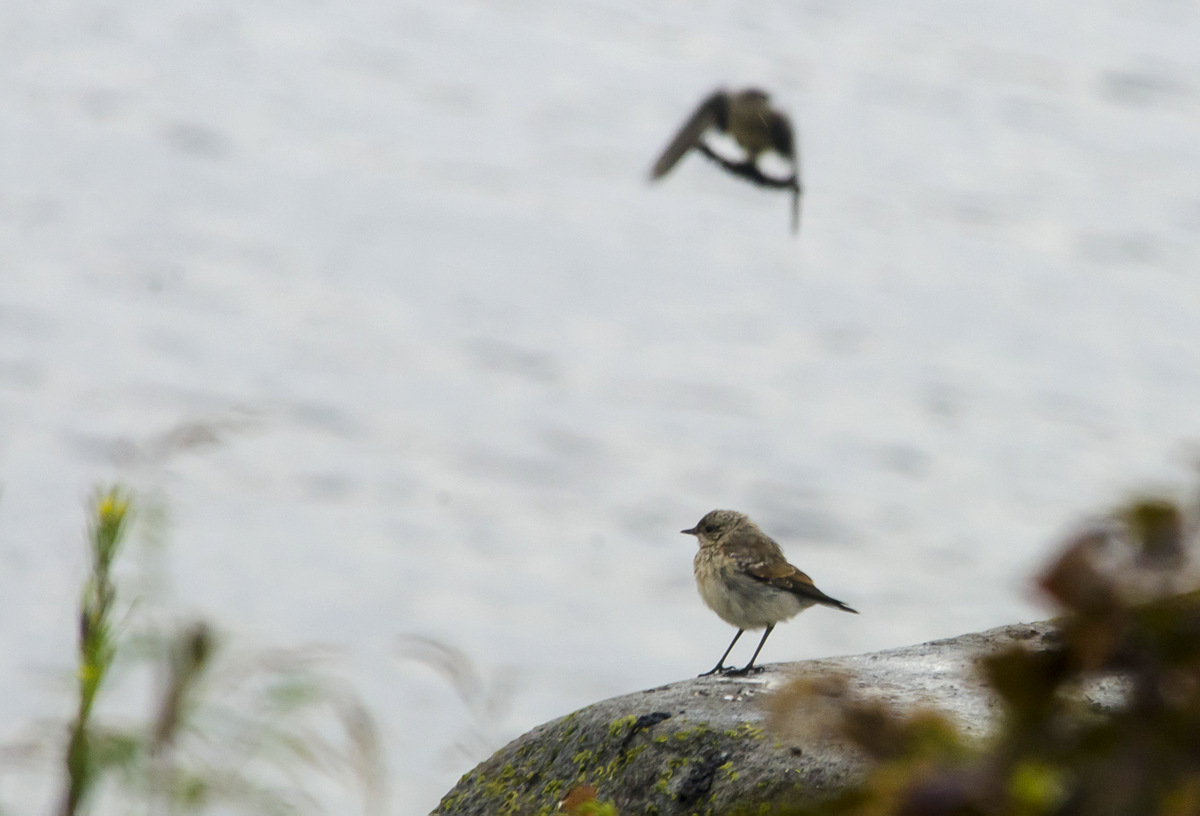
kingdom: Animalia
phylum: Chordata
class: Aves
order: Passeriformes
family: Muscicapidae
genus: Oenanthe
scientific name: Oenanthe oenanthe
